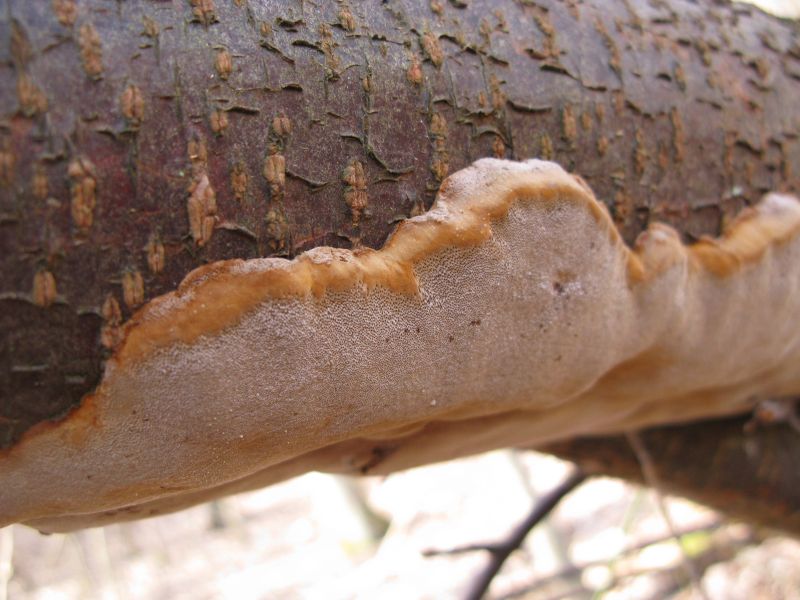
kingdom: Fungi
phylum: Basidiomycota
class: Agaricomycetes
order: Hymenochaetales
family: Hymenochaetaceae
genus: Phellinus
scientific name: Phellinus pomaceus
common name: blomme-ildporesvamp
